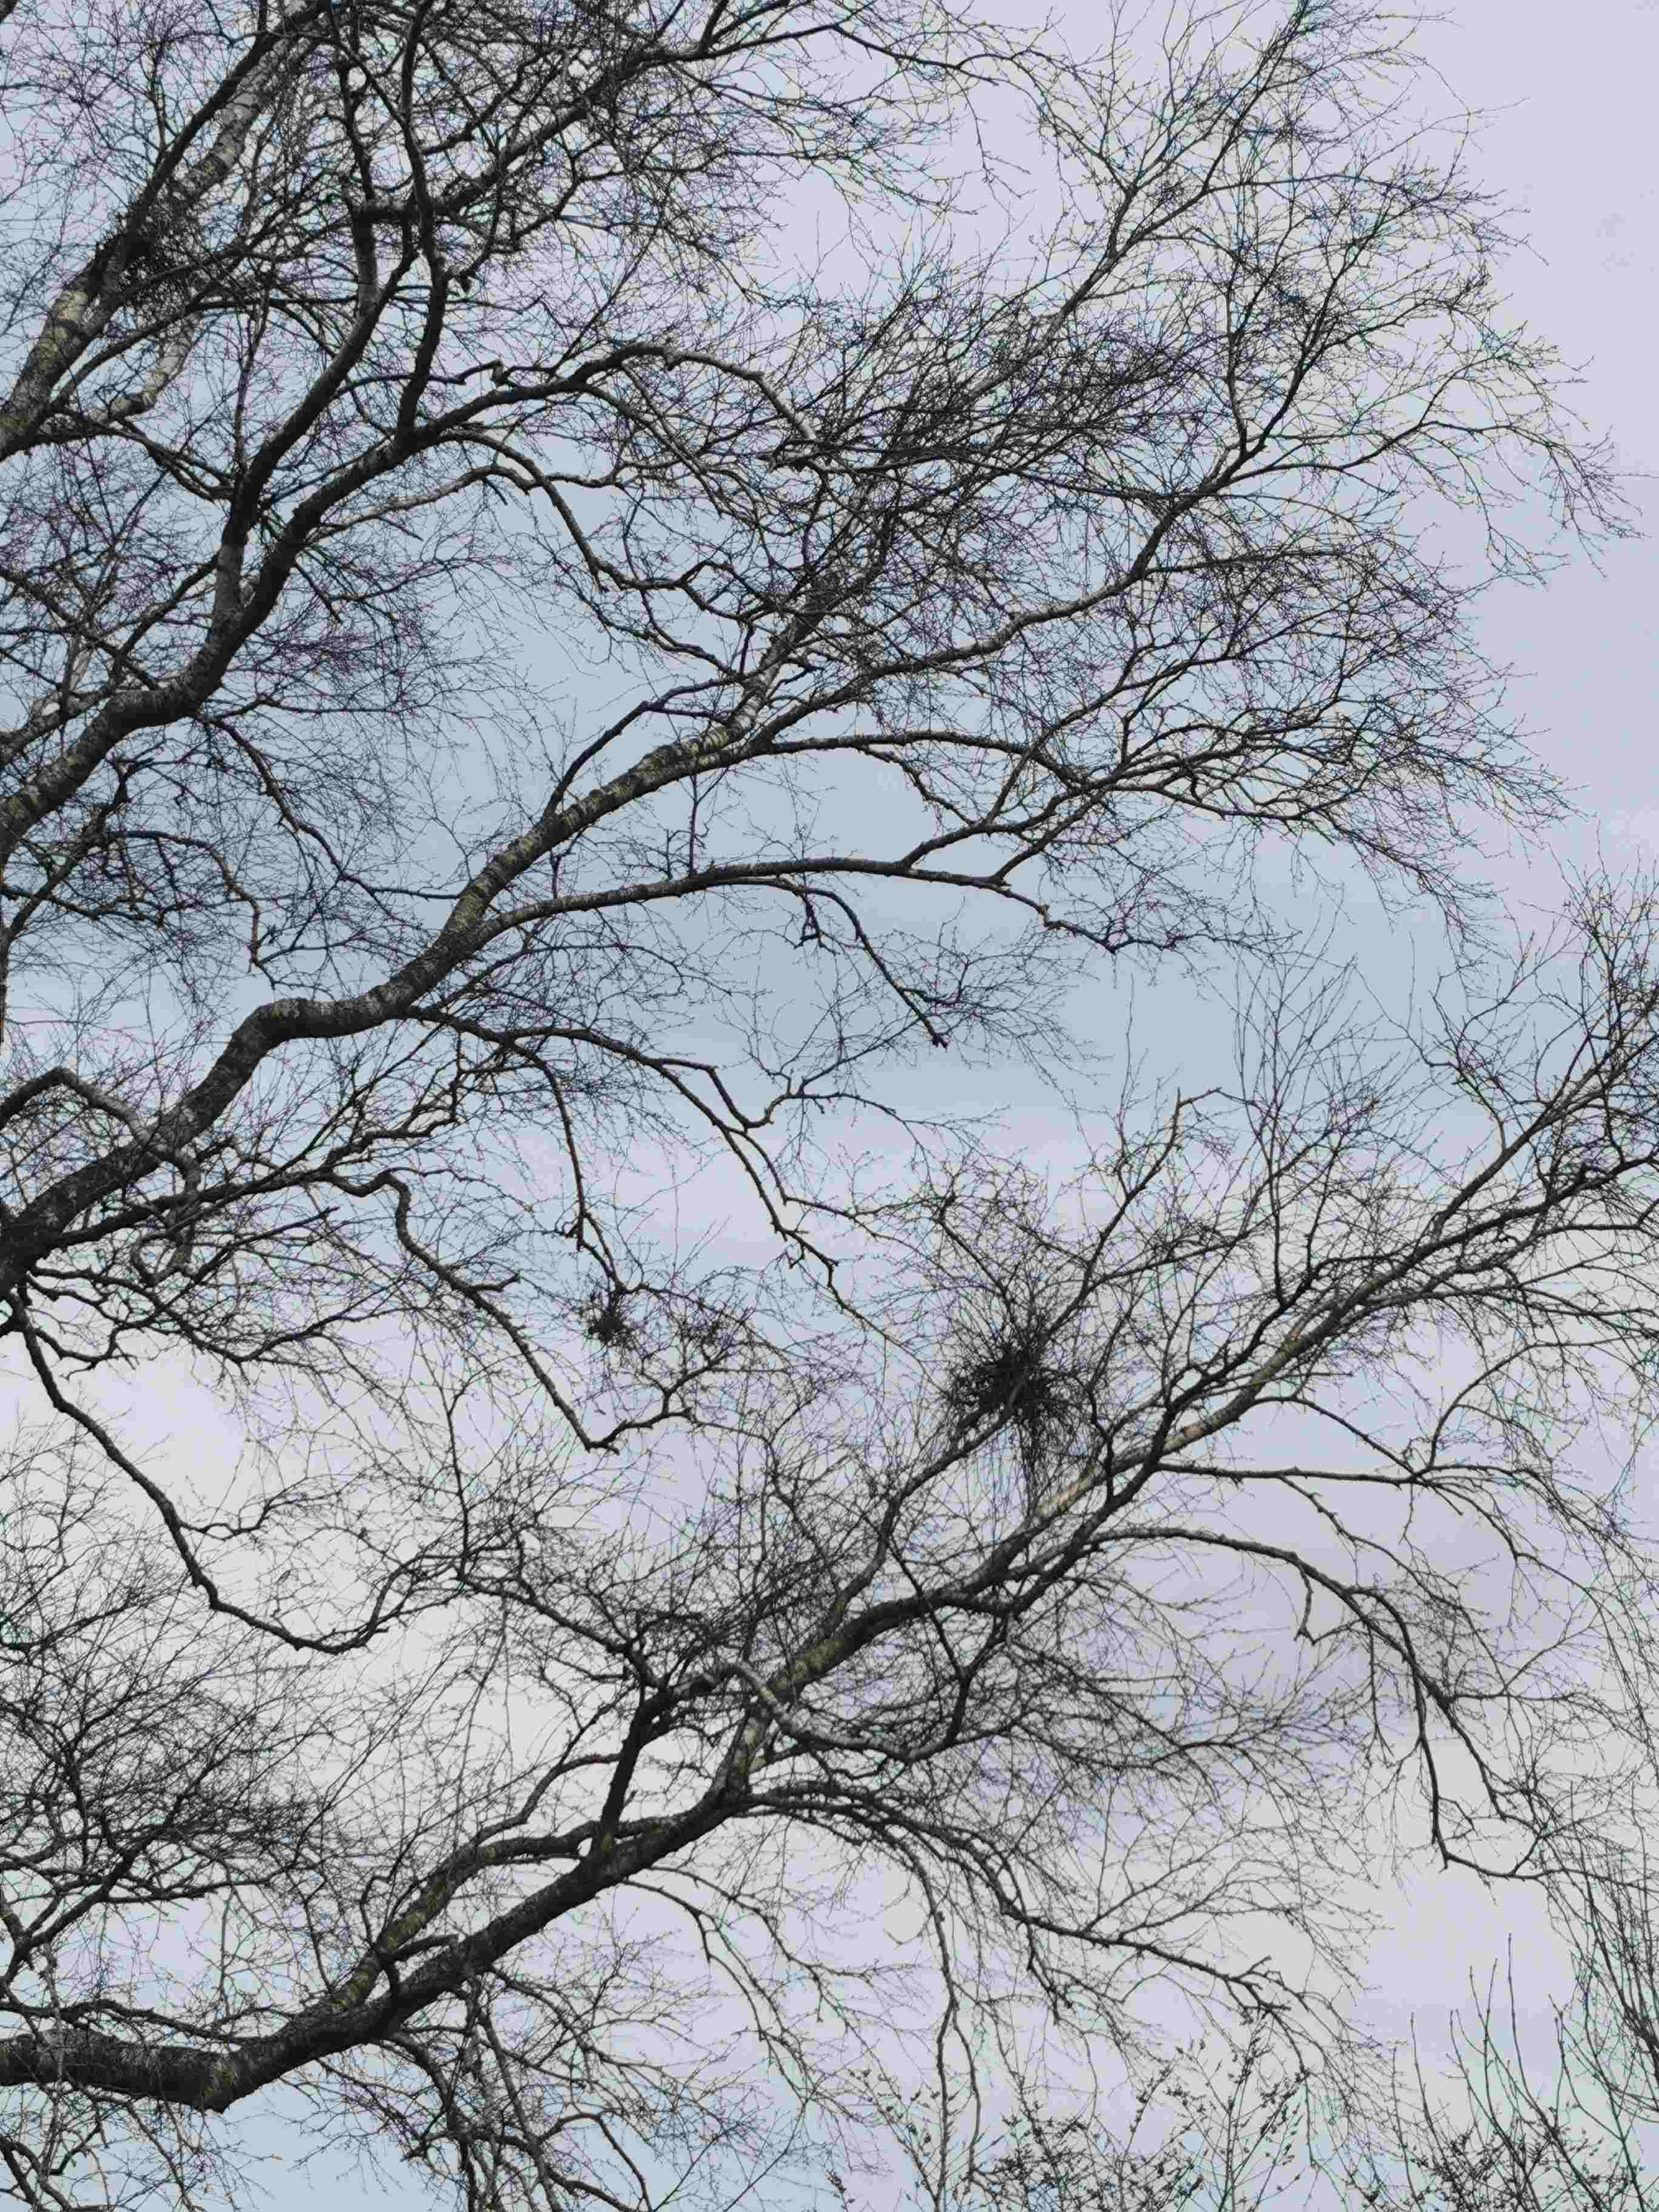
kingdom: Fungi
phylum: Ascomycota
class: Taphrinomycetes
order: Taphrinales
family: Taphrinaceae
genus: Taphrina
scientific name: Taphrina betulina
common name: hekse-sækdug
